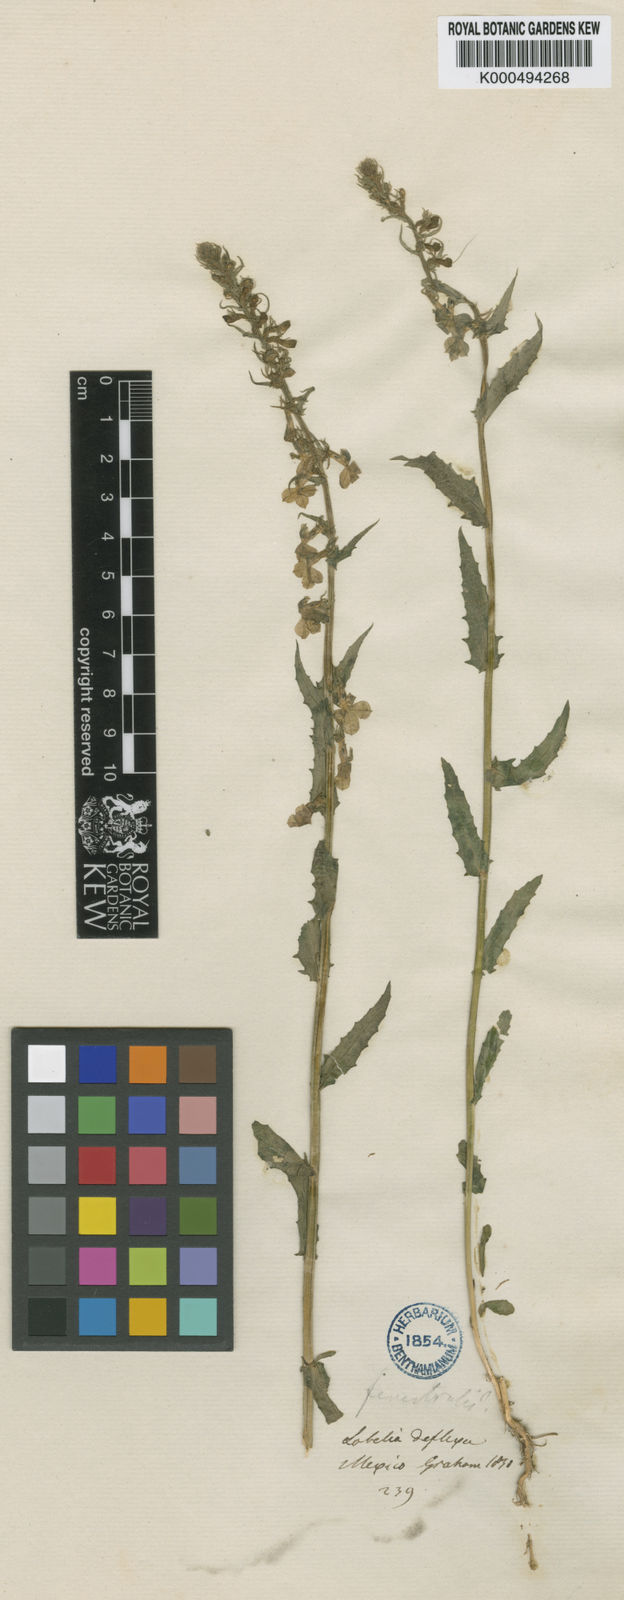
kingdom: Plantae
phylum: Tracheophyta
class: Magnoliopsida
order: Asterales
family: Campanulaceae
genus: Lobelia
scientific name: Lobelia fenestralis
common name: Leafy lobelia
